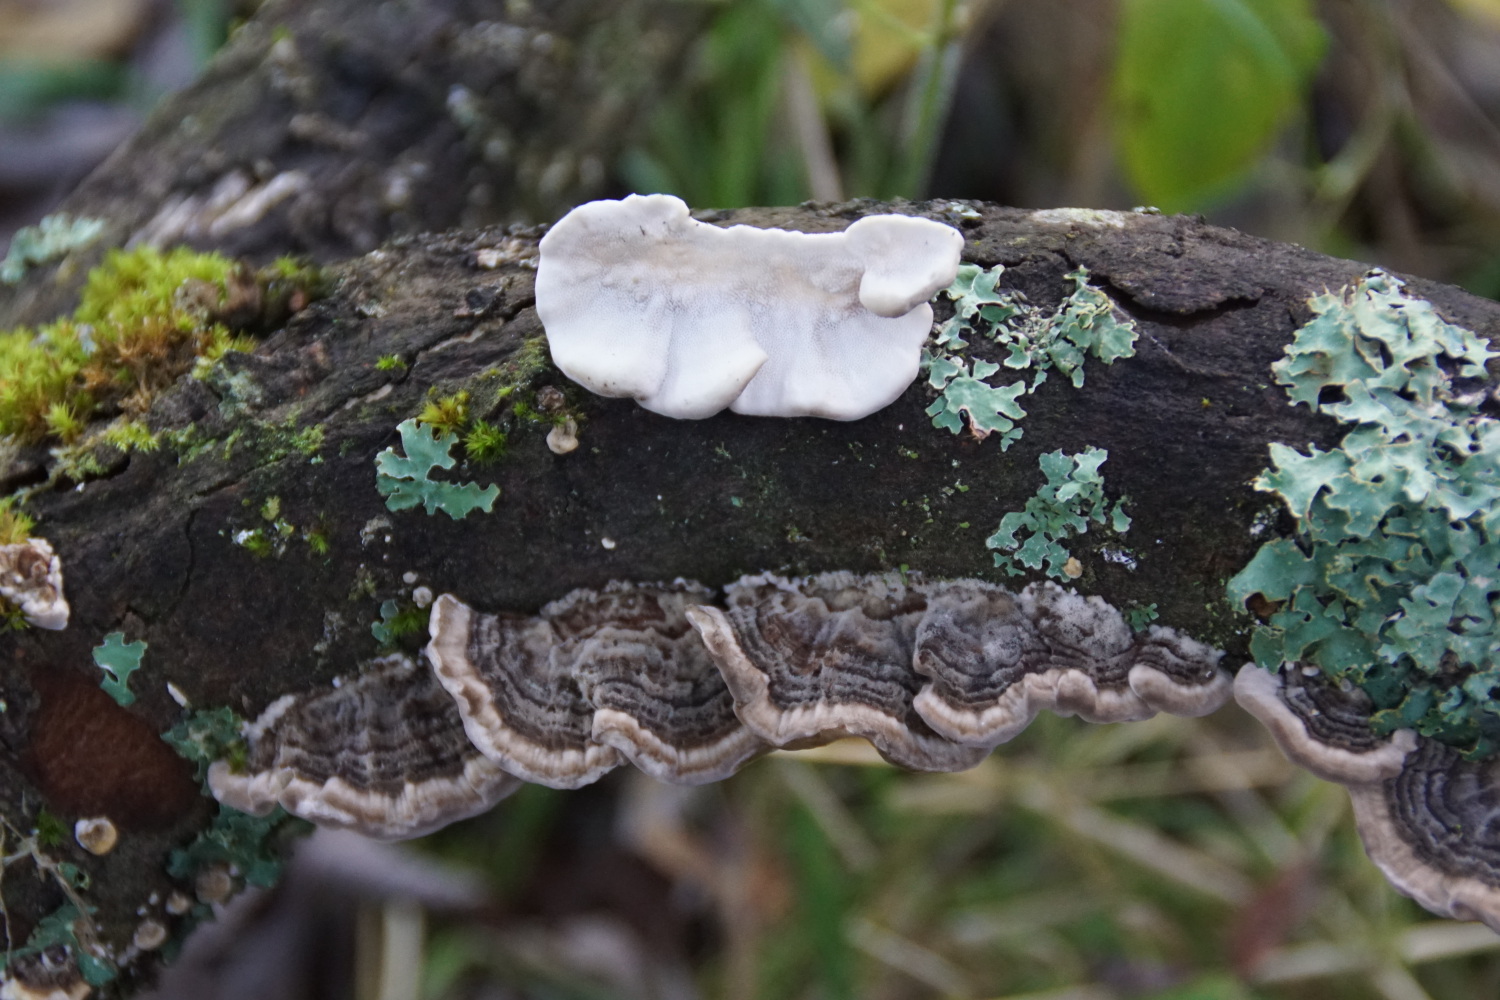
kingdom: Fungi
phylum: Basidiomycota
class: Agaricomycetes
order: Polyporales
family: Polyporaceae
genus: Trametes
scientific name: Trametes versicolor
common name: broget læderporesvamp
